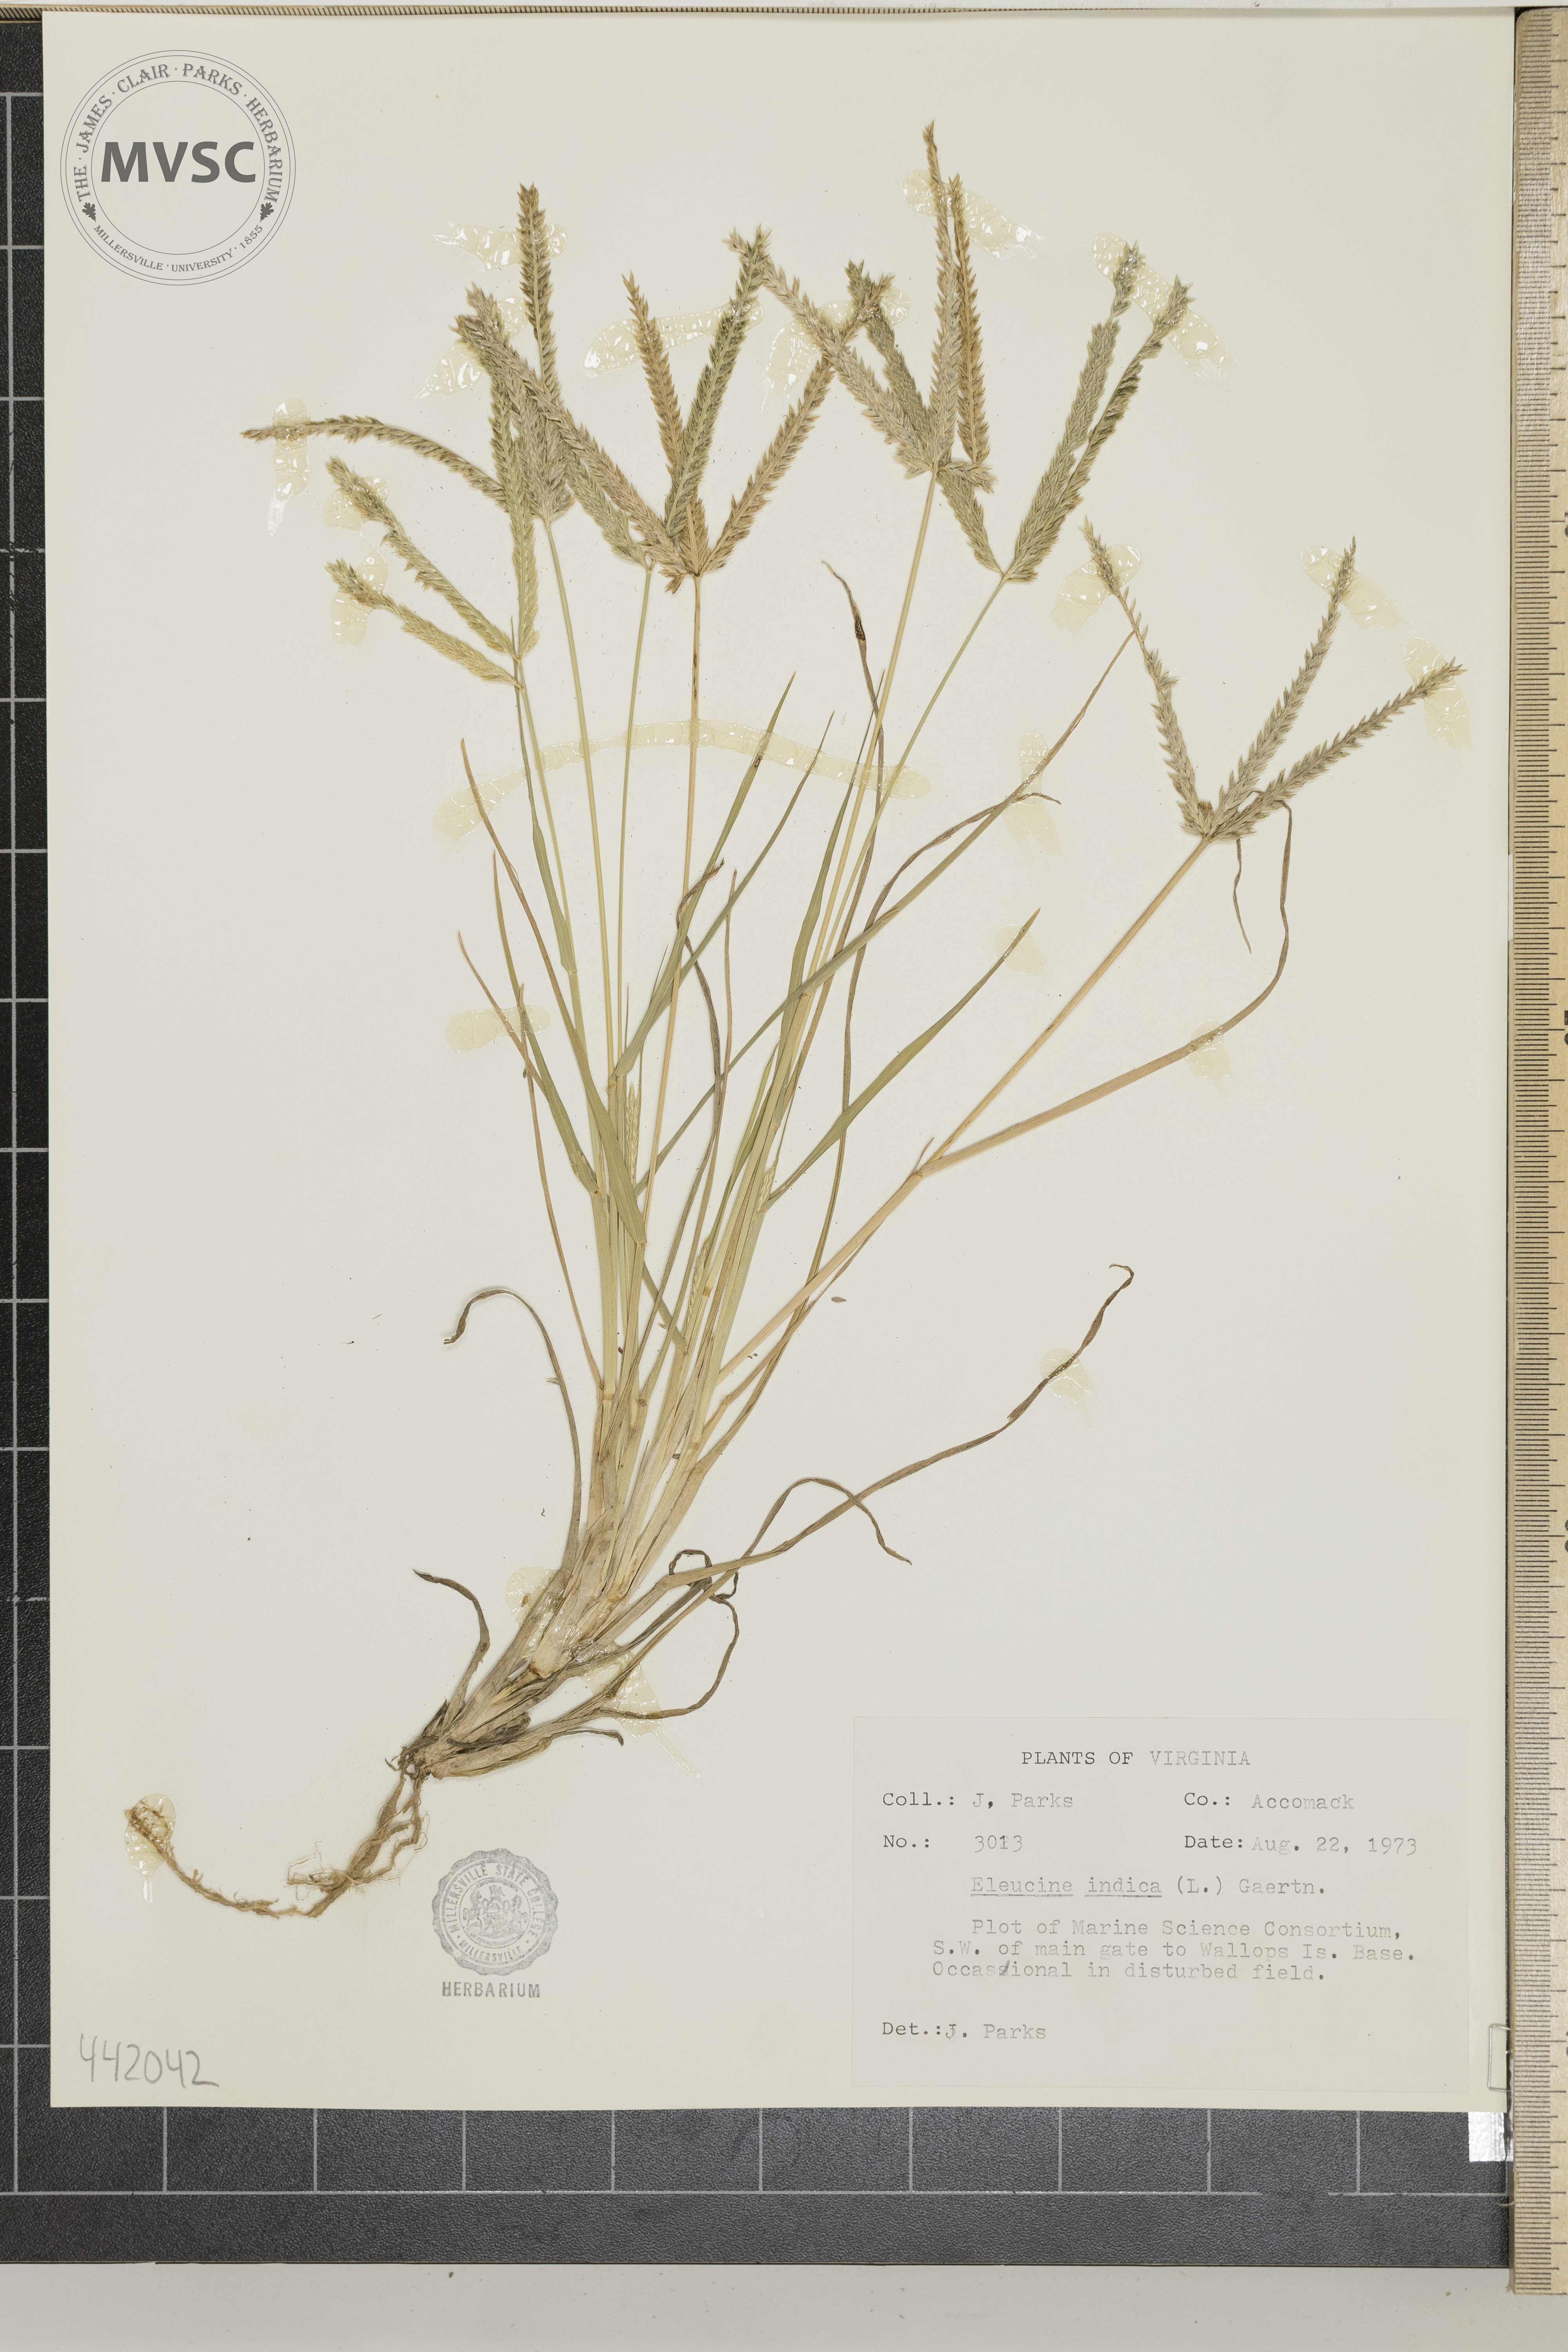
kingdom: Plantae
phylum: Tracheophyta
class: Liliopsida
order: Poales
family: Poaceae
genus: Eleusine
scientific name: Eleusine indica
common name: Yard-grass
